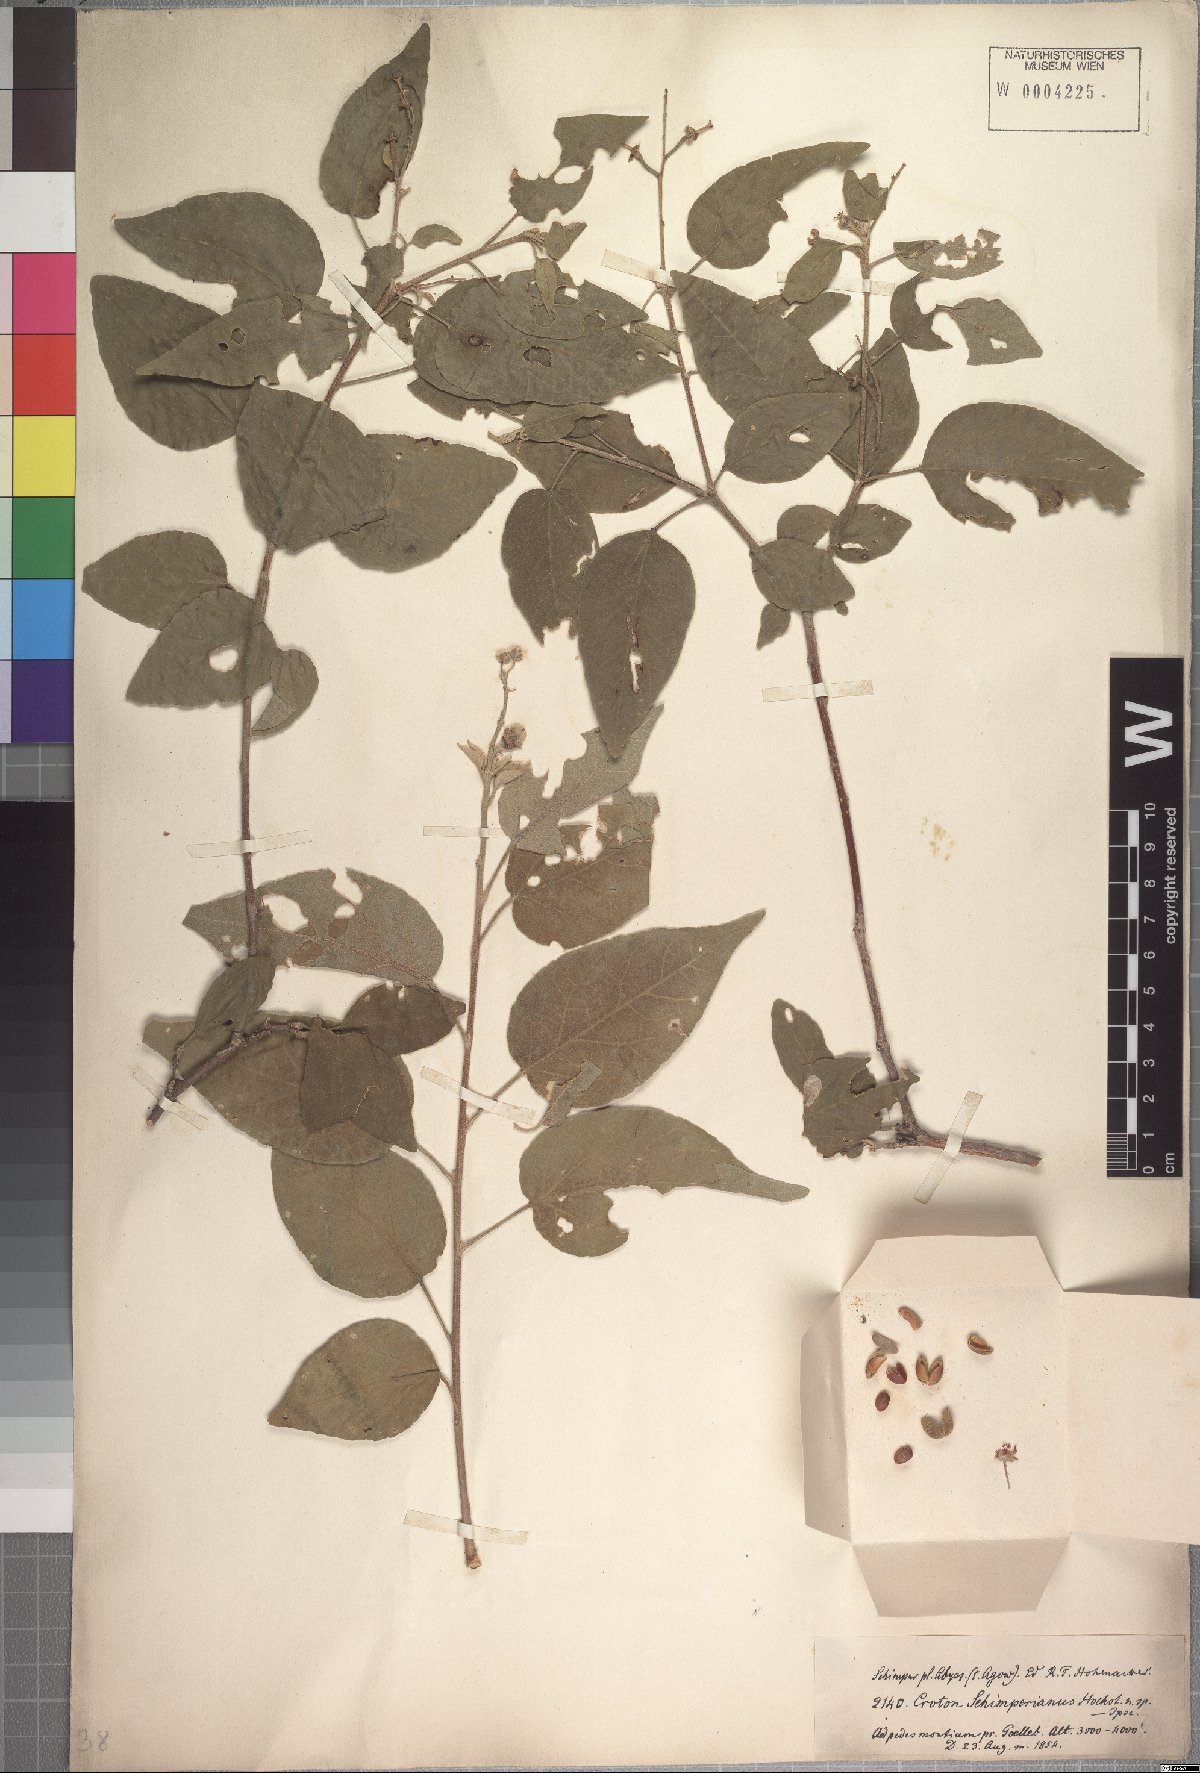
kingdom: Plantae
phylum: Tracheophyta
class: Magnoliopsida
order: Malpighiales
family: Euphorbiaceae
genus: Croton
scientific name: Croton schimperianus
